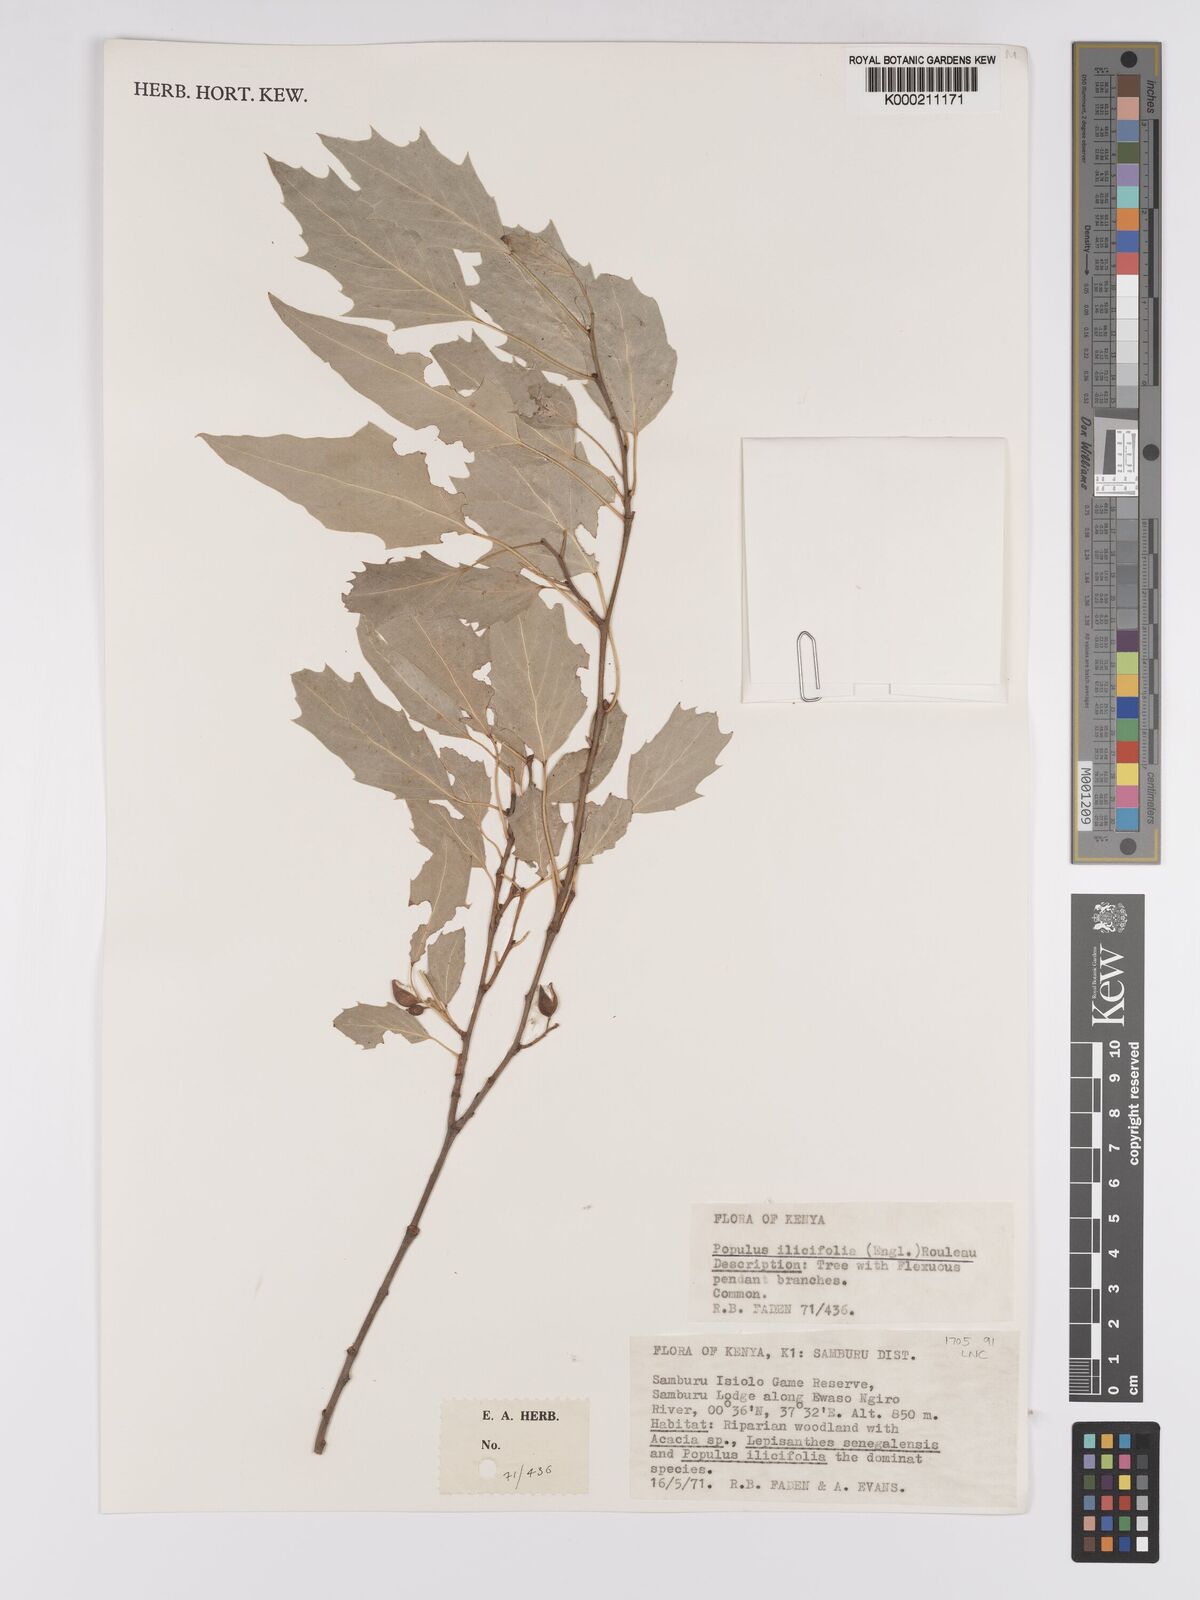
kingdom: Plantae
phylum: Tracheophyta
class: Magnoliopsida
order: Malpighiales
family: Salicaceae
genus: Populus
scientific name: Populus ilicifolia
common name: Tana river poplar
